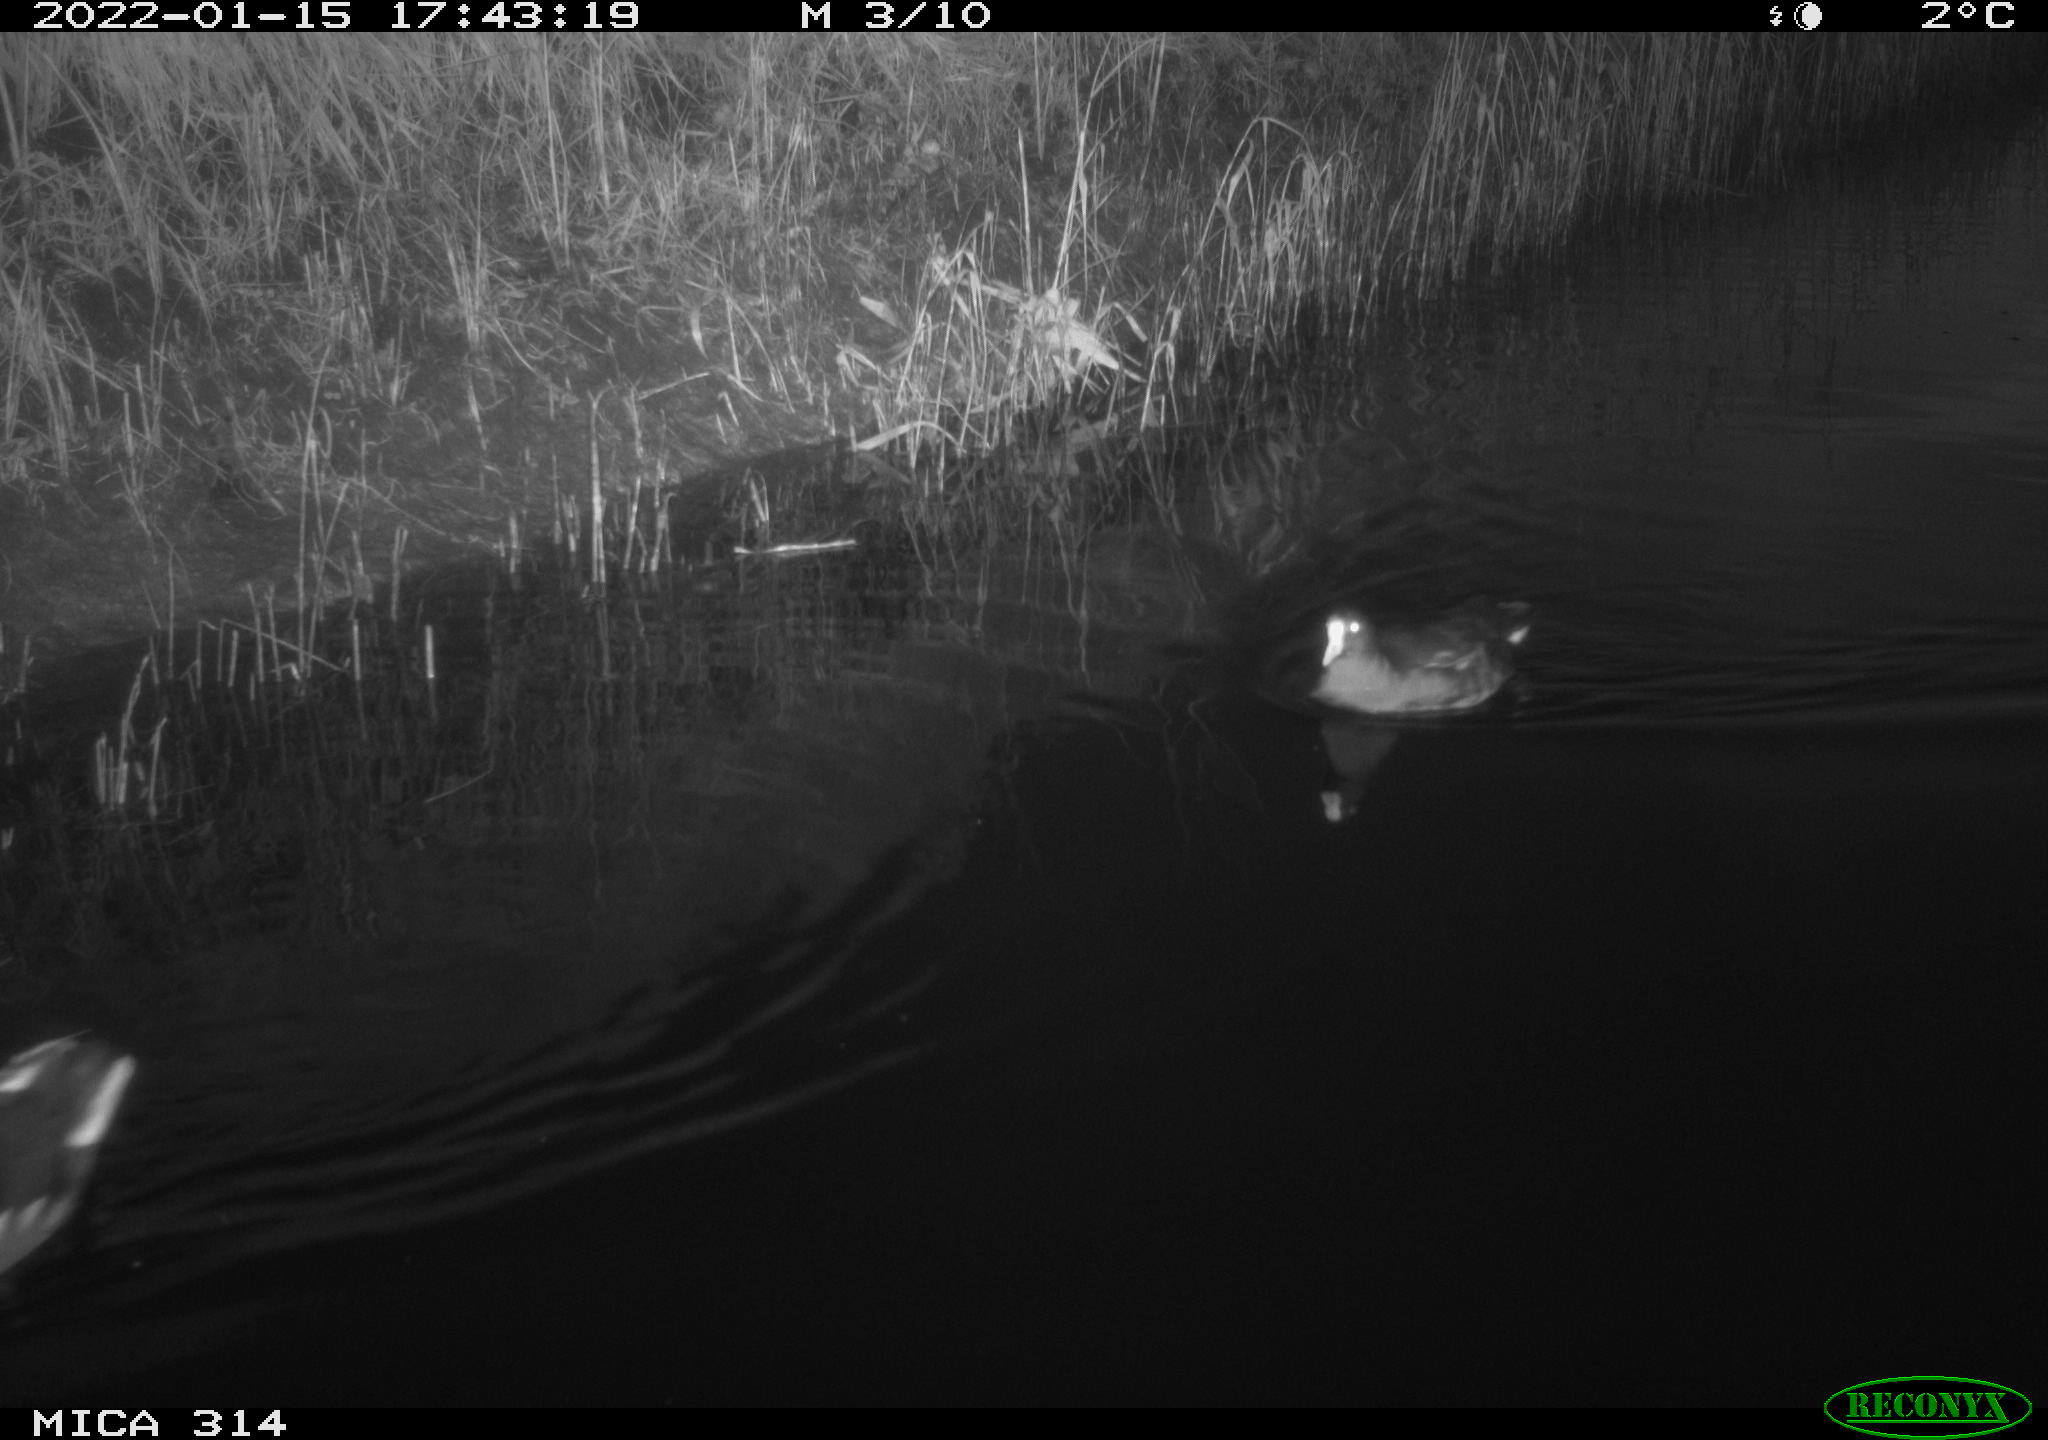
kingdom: Animalia
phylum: Chordata
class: Aves
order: Anseriformes
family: Anatidae
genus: Anas
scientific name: Anas
